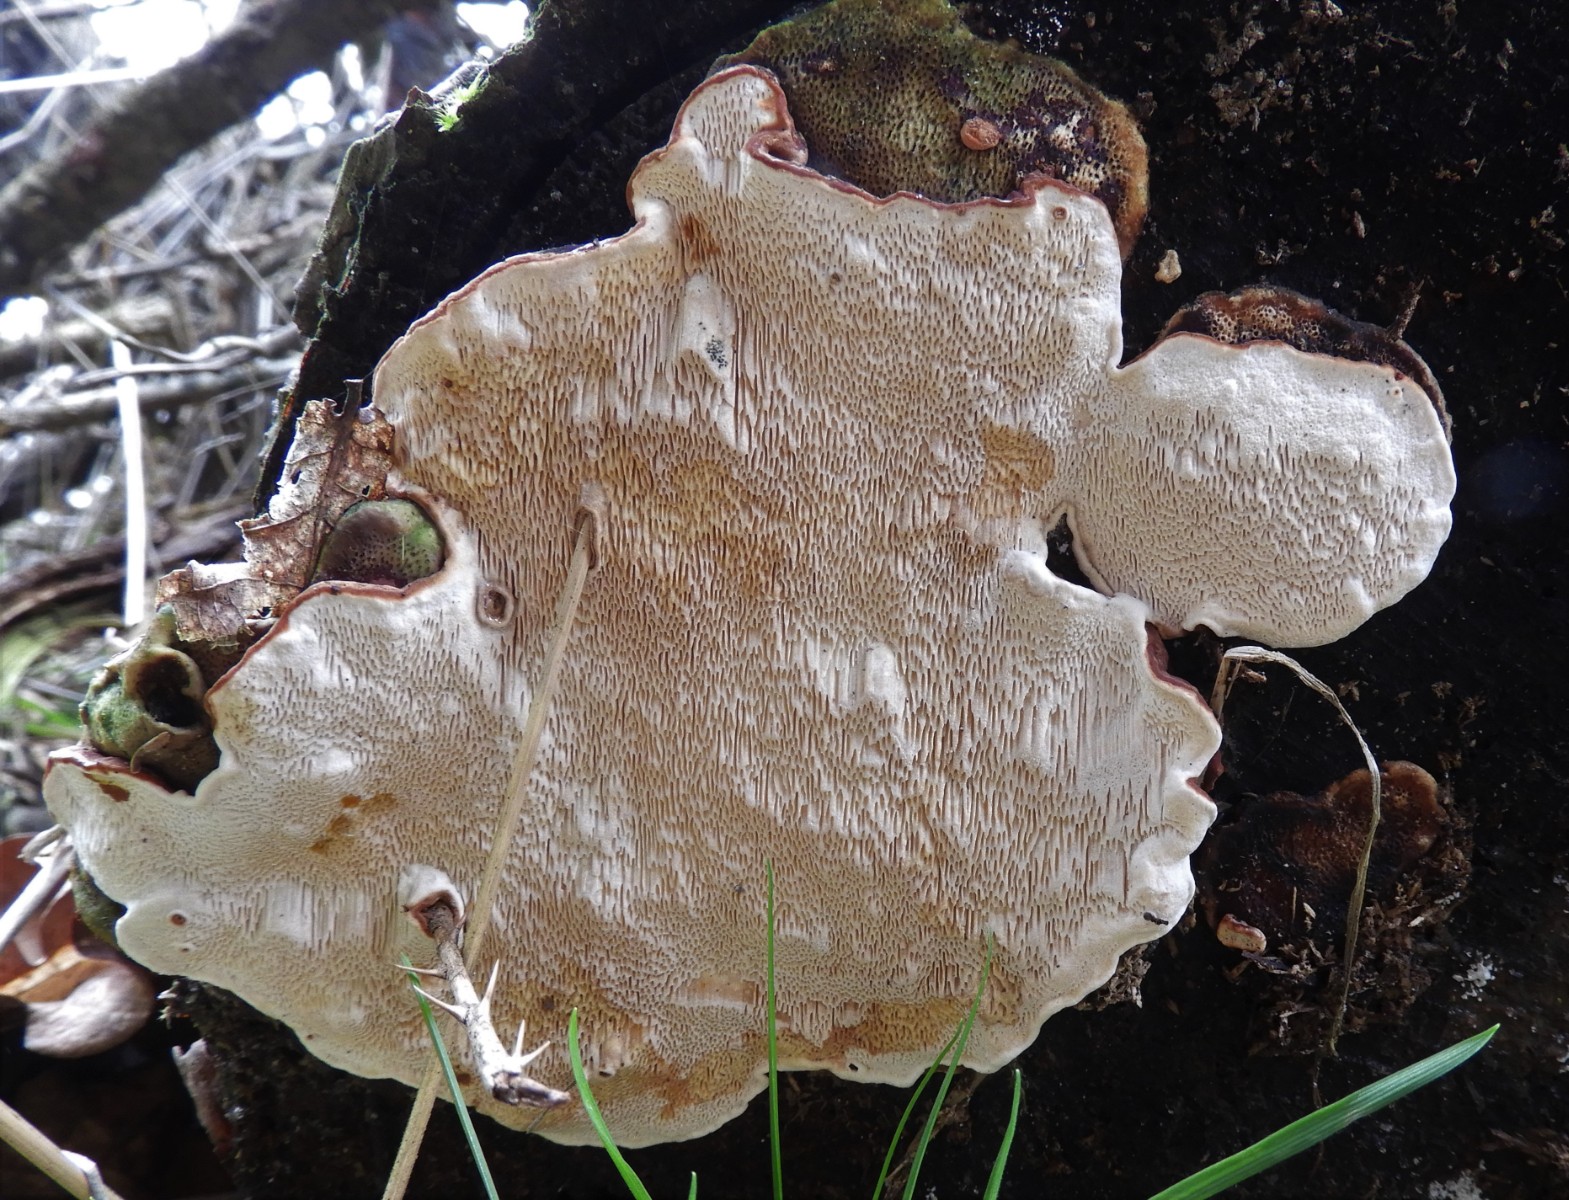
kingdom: Fungi
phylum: Basidiomycota
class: Agaricomycetes
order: Russulales
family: Bondarzewiaceae
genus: Heterobasidion
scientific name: Heterobasidion annosum
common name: almindelig rodfordærver
